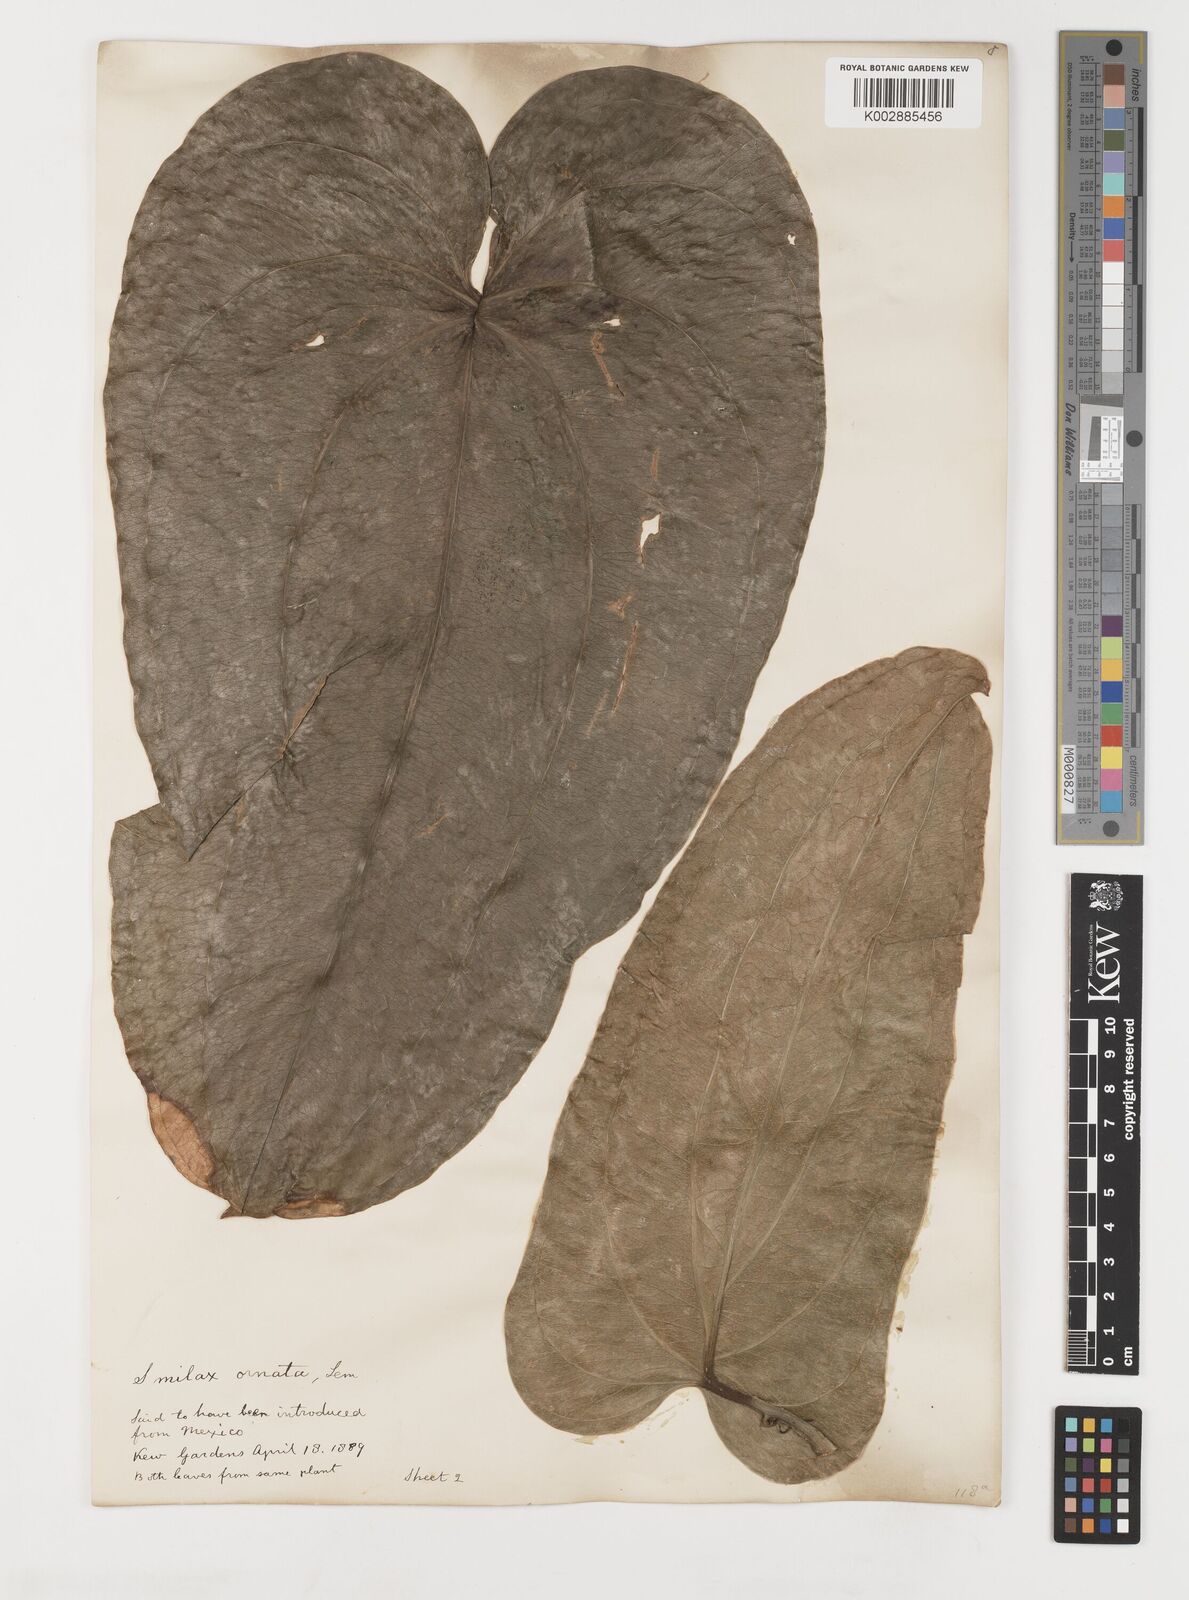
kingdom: Plantae
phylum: Tracheophyta
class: Liliopsida
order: Liliales
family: Smilacaceae
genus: Smilax
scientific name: Smilax ornata
